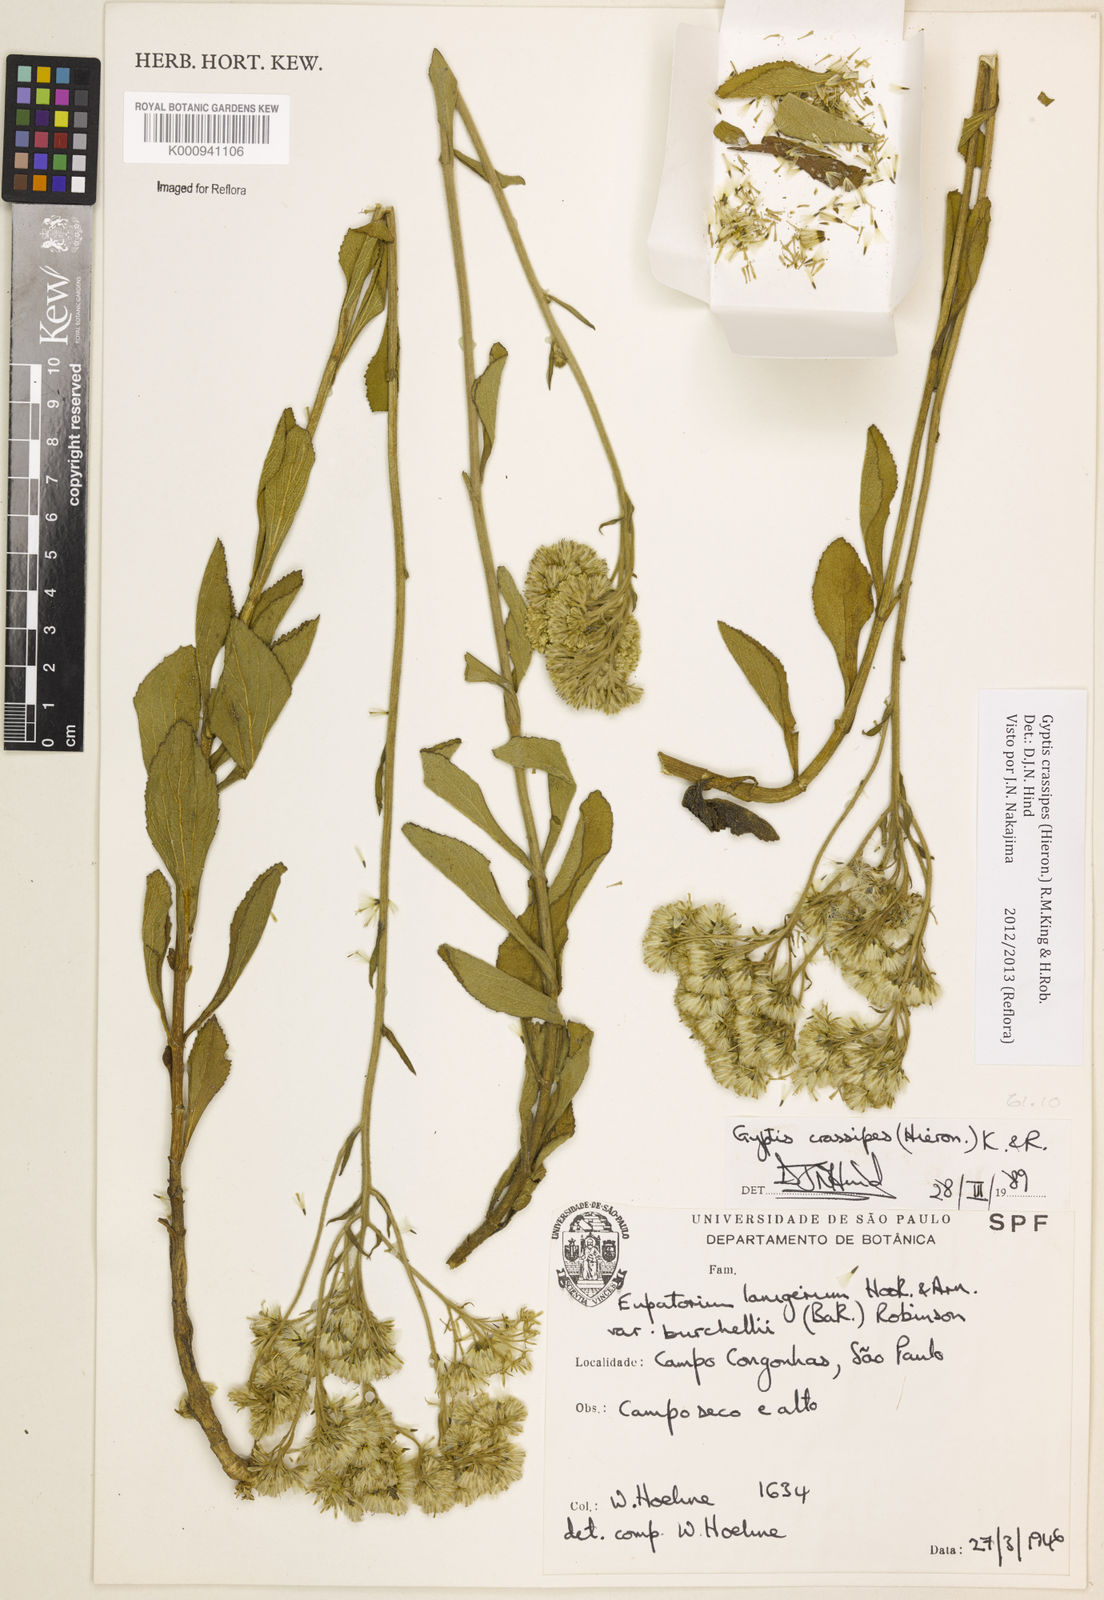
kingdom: Plantae
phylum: Tracheophyta
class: Magnoliopsida
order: Asterales
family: Asteraceae
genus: Gyptis
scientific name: Gyptis crassipes
